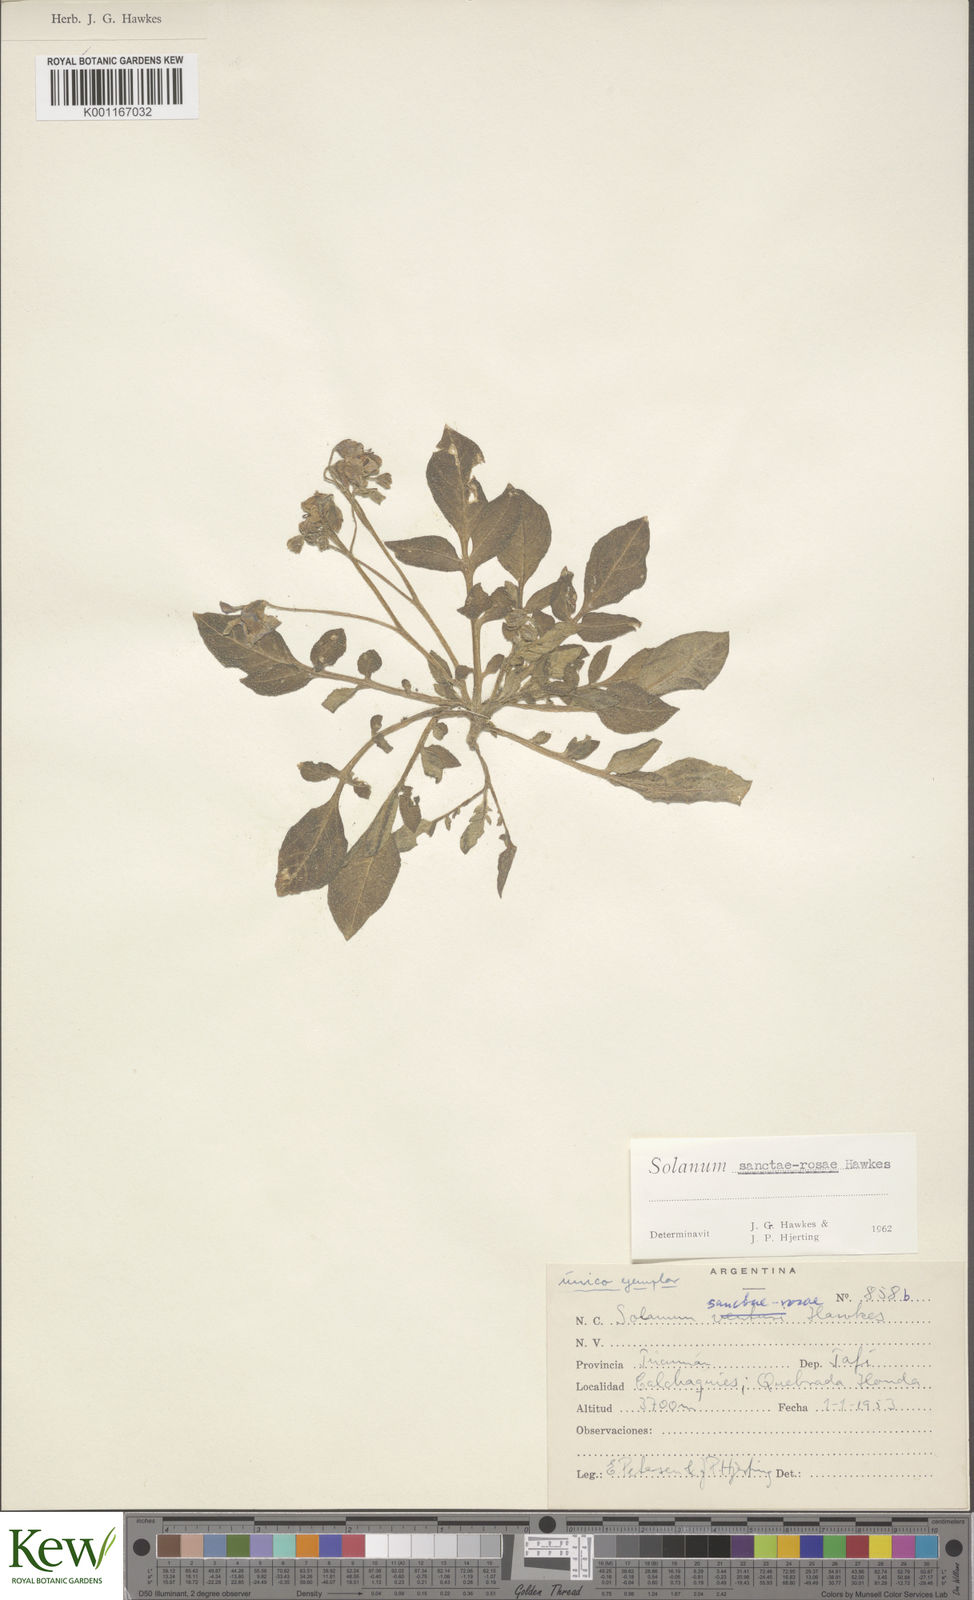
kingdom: Plantae
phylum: Tracheophyta
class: Magnoliopsida
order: Solanales
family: Solanaceae
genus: Solanum
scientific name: Solanum boliviense
